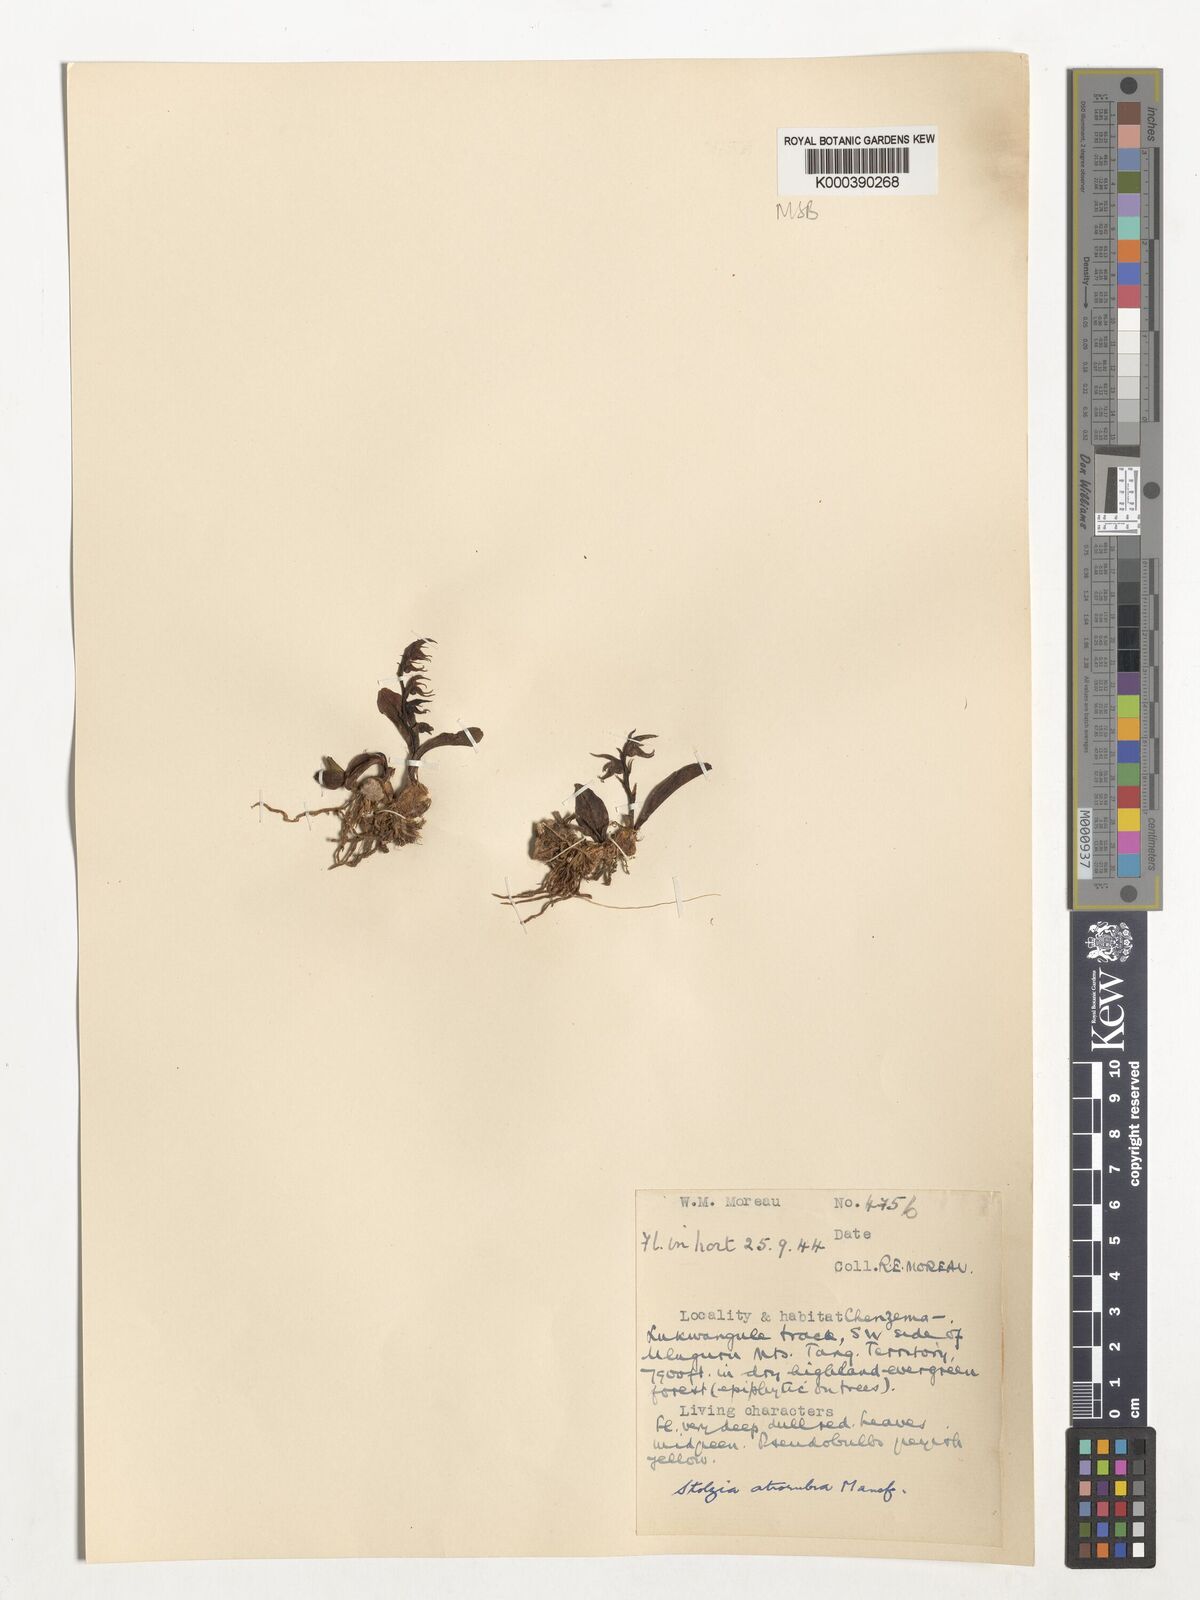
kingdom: Plantae
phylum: Tracheophyta
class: Liliopsida
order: Asparagales
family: Orchidaceae
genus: Porpax
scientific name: Porpax atrorubra
